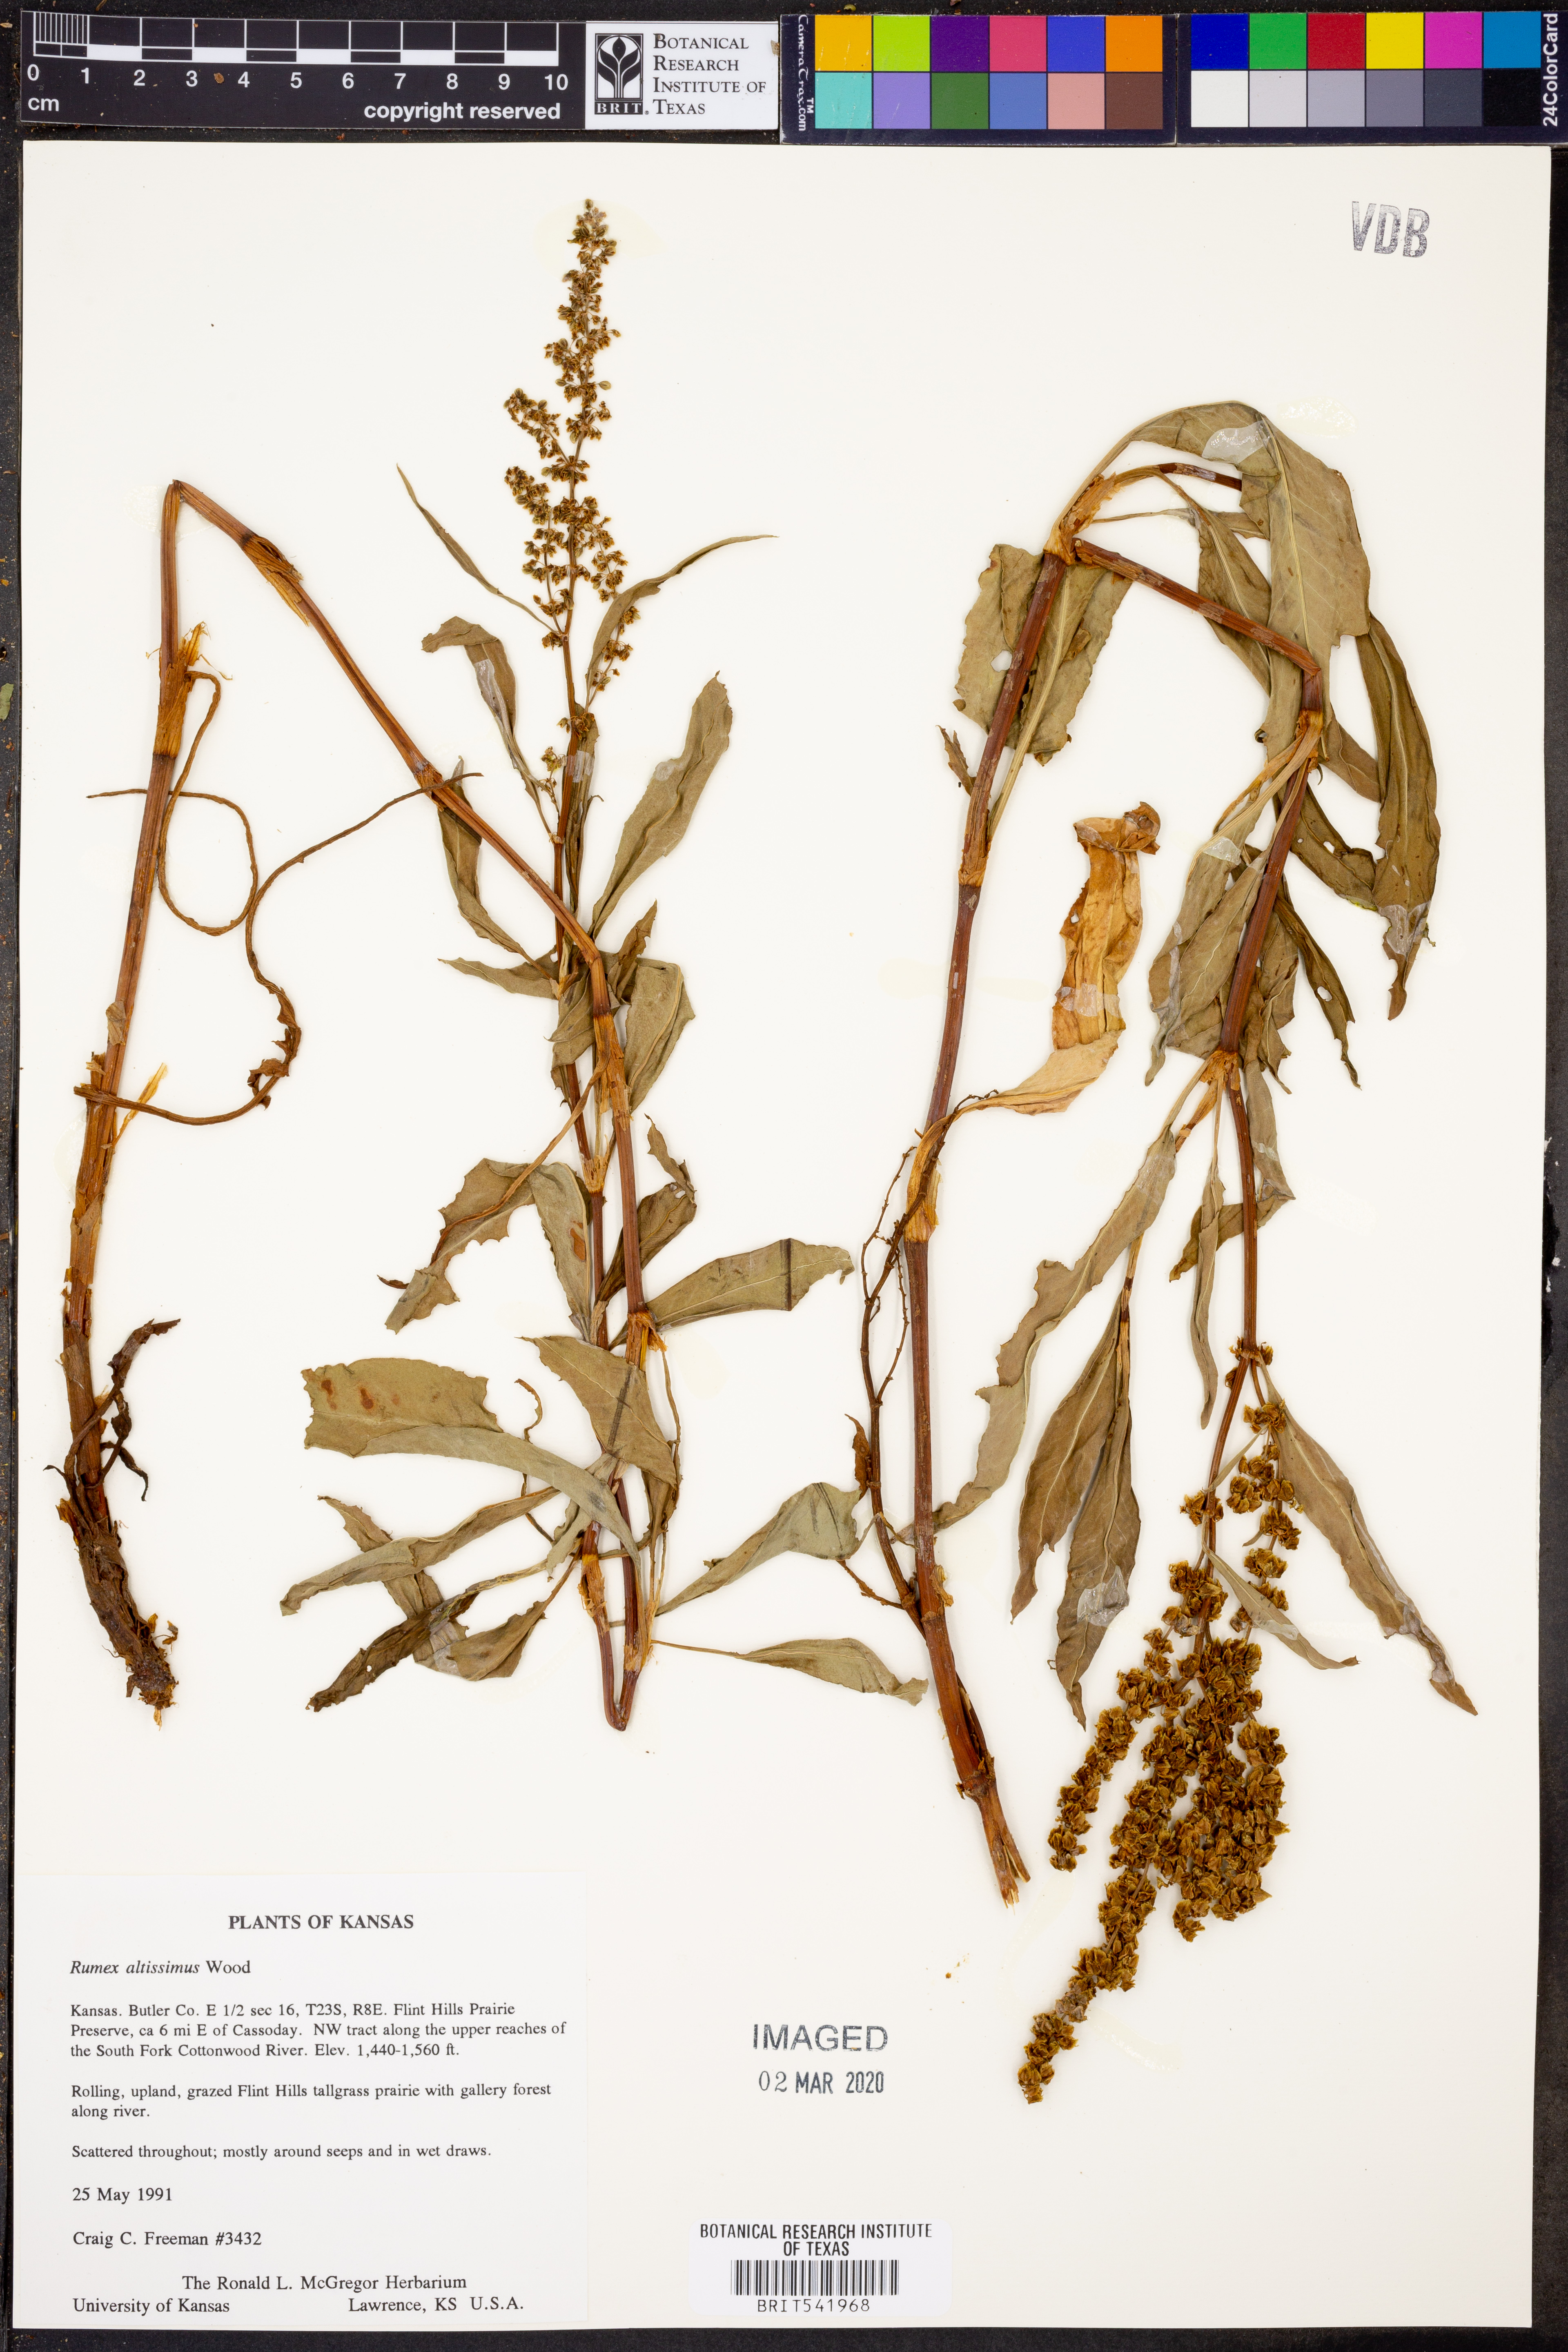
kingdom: Plantae
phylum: Tracheophyta
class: Magnoliopsida
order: Caryophyllales
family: Polygonaceae
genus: Rumex
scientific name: Rumex altissimus
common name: Smooth dock
